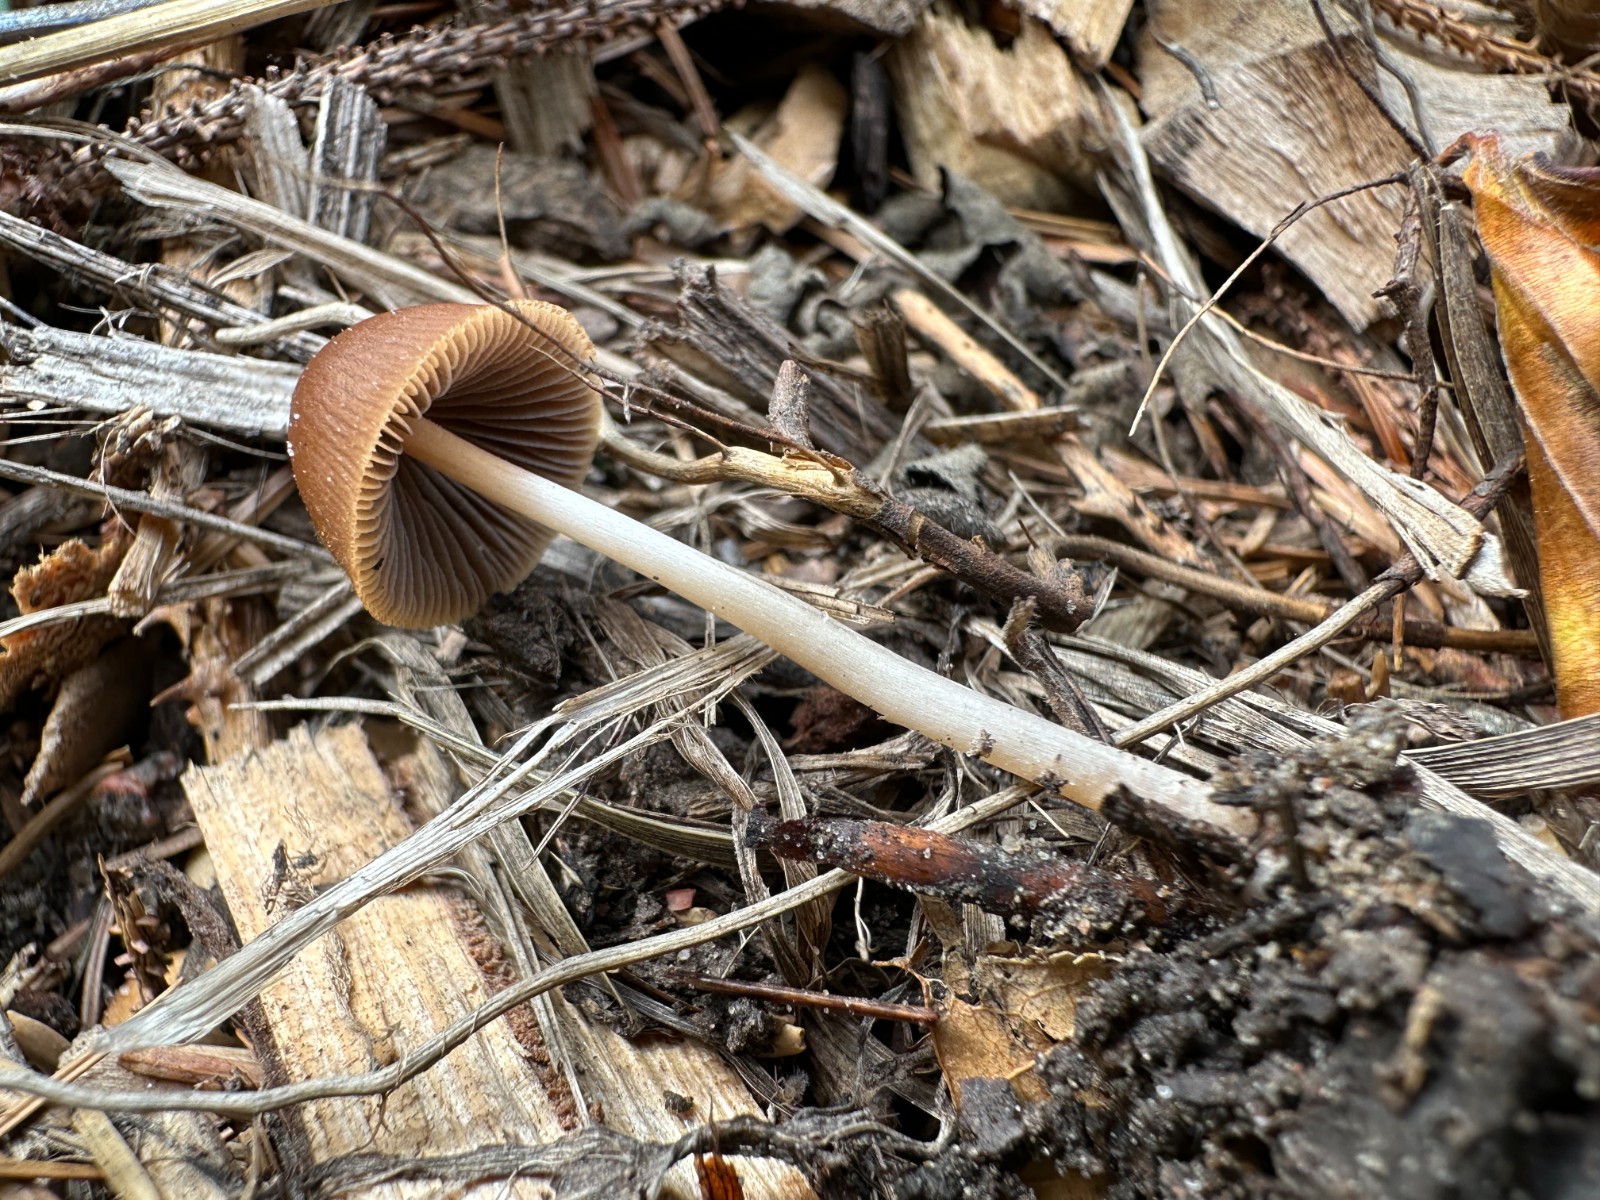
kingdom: Fungi
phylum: Basidiomycota
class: Agaricomycetes
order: Agaricales
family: Psathyrellaceae
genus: Parasola
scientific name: Parasola conopilea
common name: kegle-hjulhat
